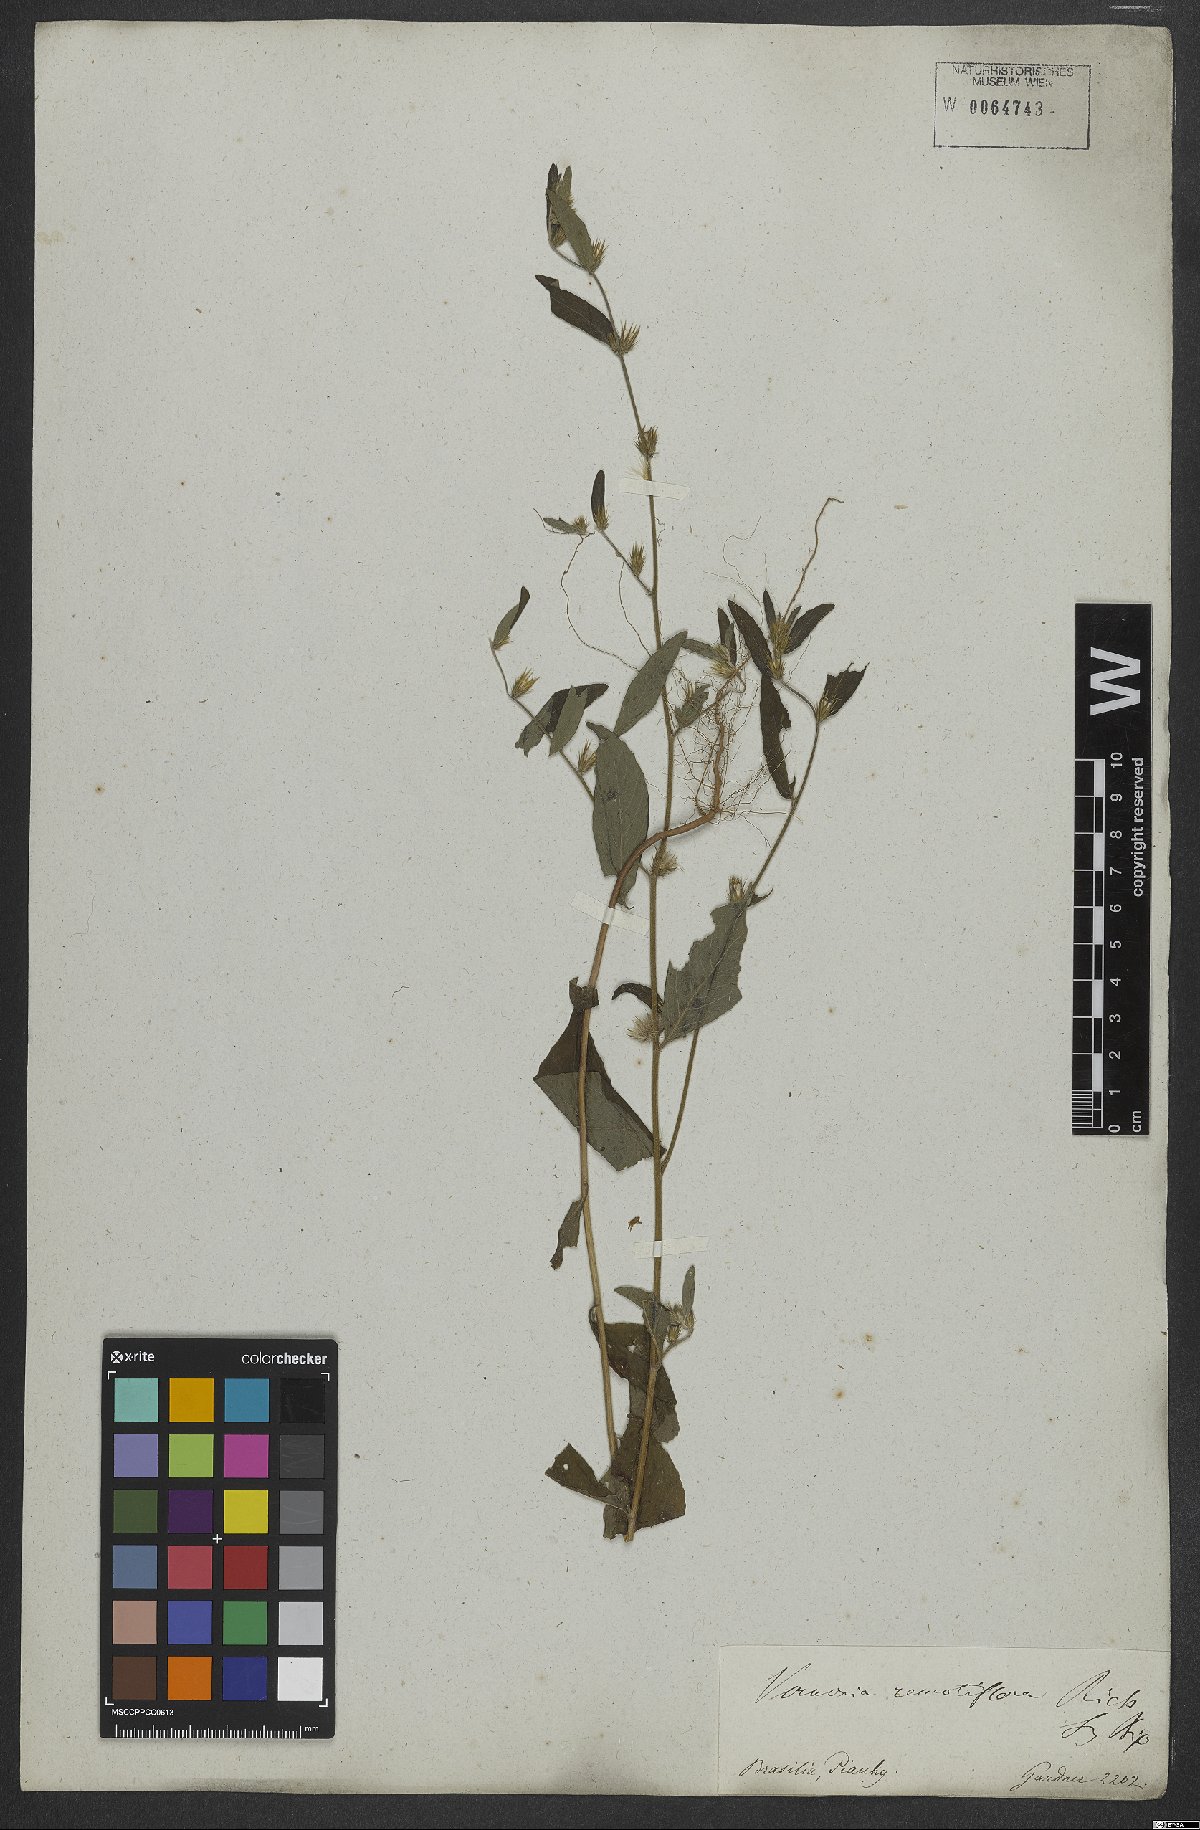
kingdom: Plantae
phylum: Tracheophyta
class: Magnoliopsida
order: Asterales
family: Asteraceae
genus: Lepidaploa
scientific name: Lepidaploa remotiflora
